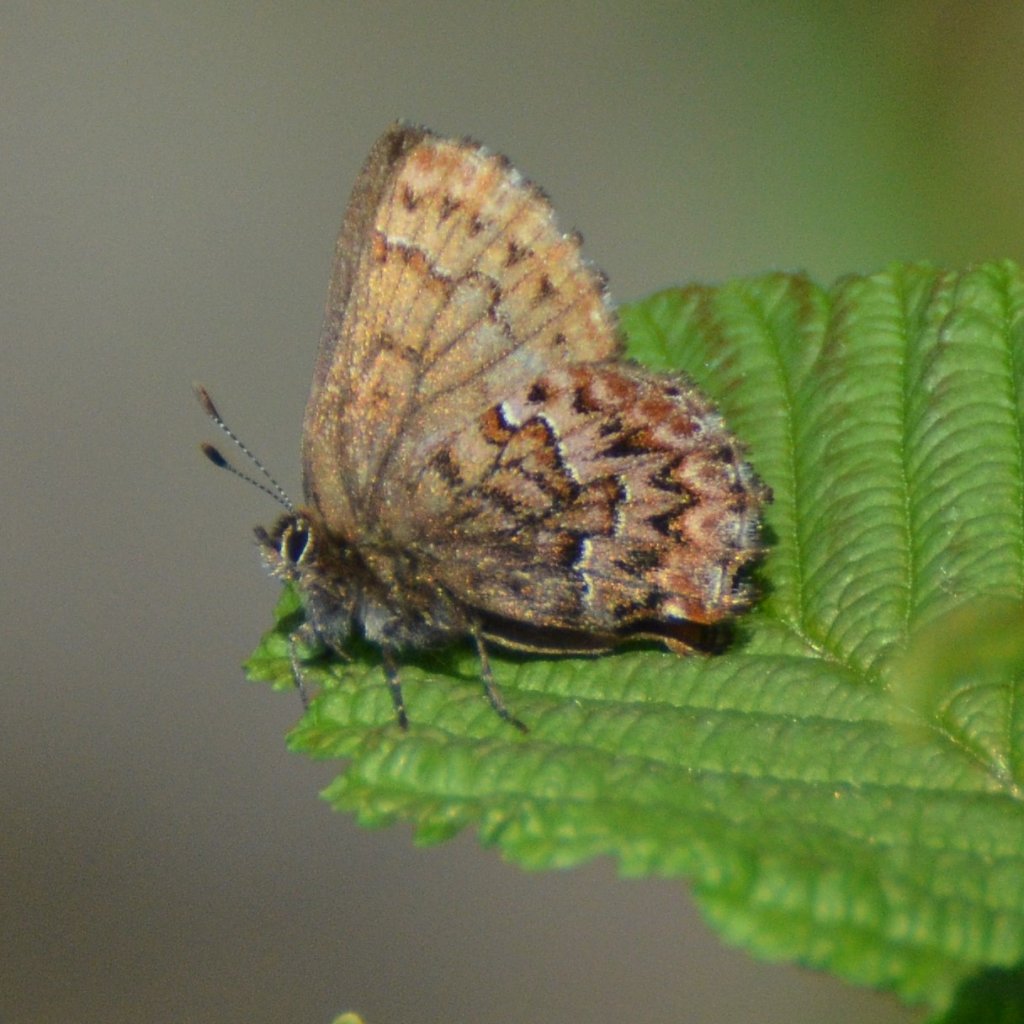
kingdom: Animalia
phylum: Arthropoda
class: Insecta
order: Lepidoptera
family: Lycaenidae
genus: Incisalia
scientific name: Incisalia eryphon
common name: Western Pine Elfin
